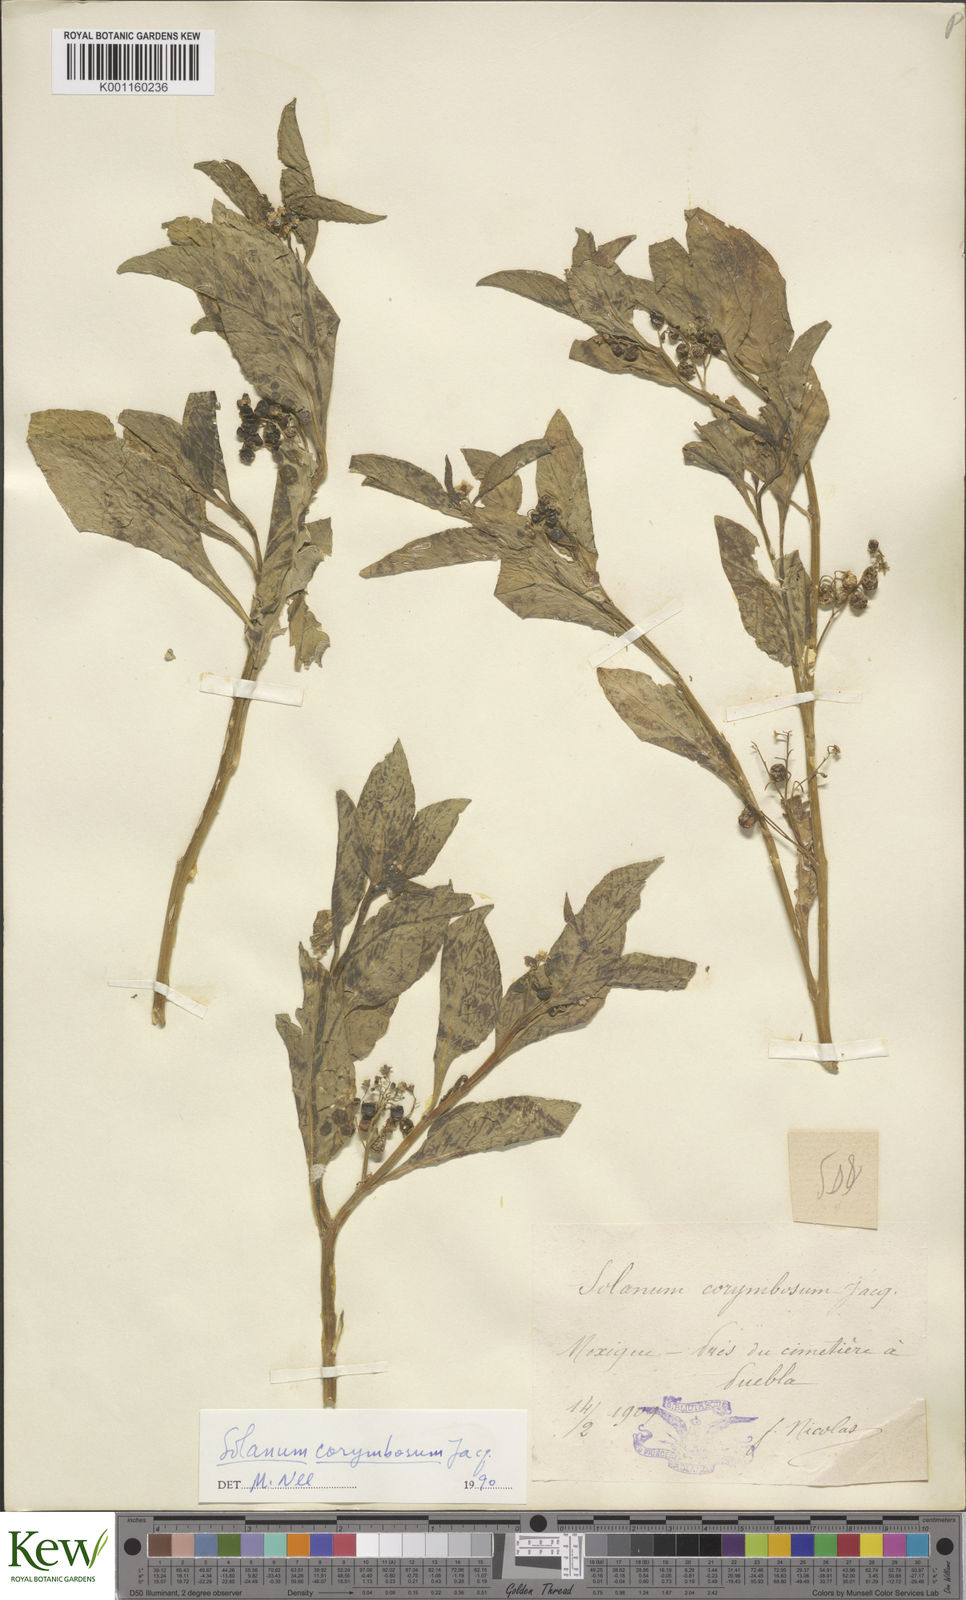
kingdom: Plantae
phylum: Tracheophyta
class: Magnoliopsida
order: Solanales
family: Solanaceae
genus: Solanum
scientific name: Solanum corymbosum
